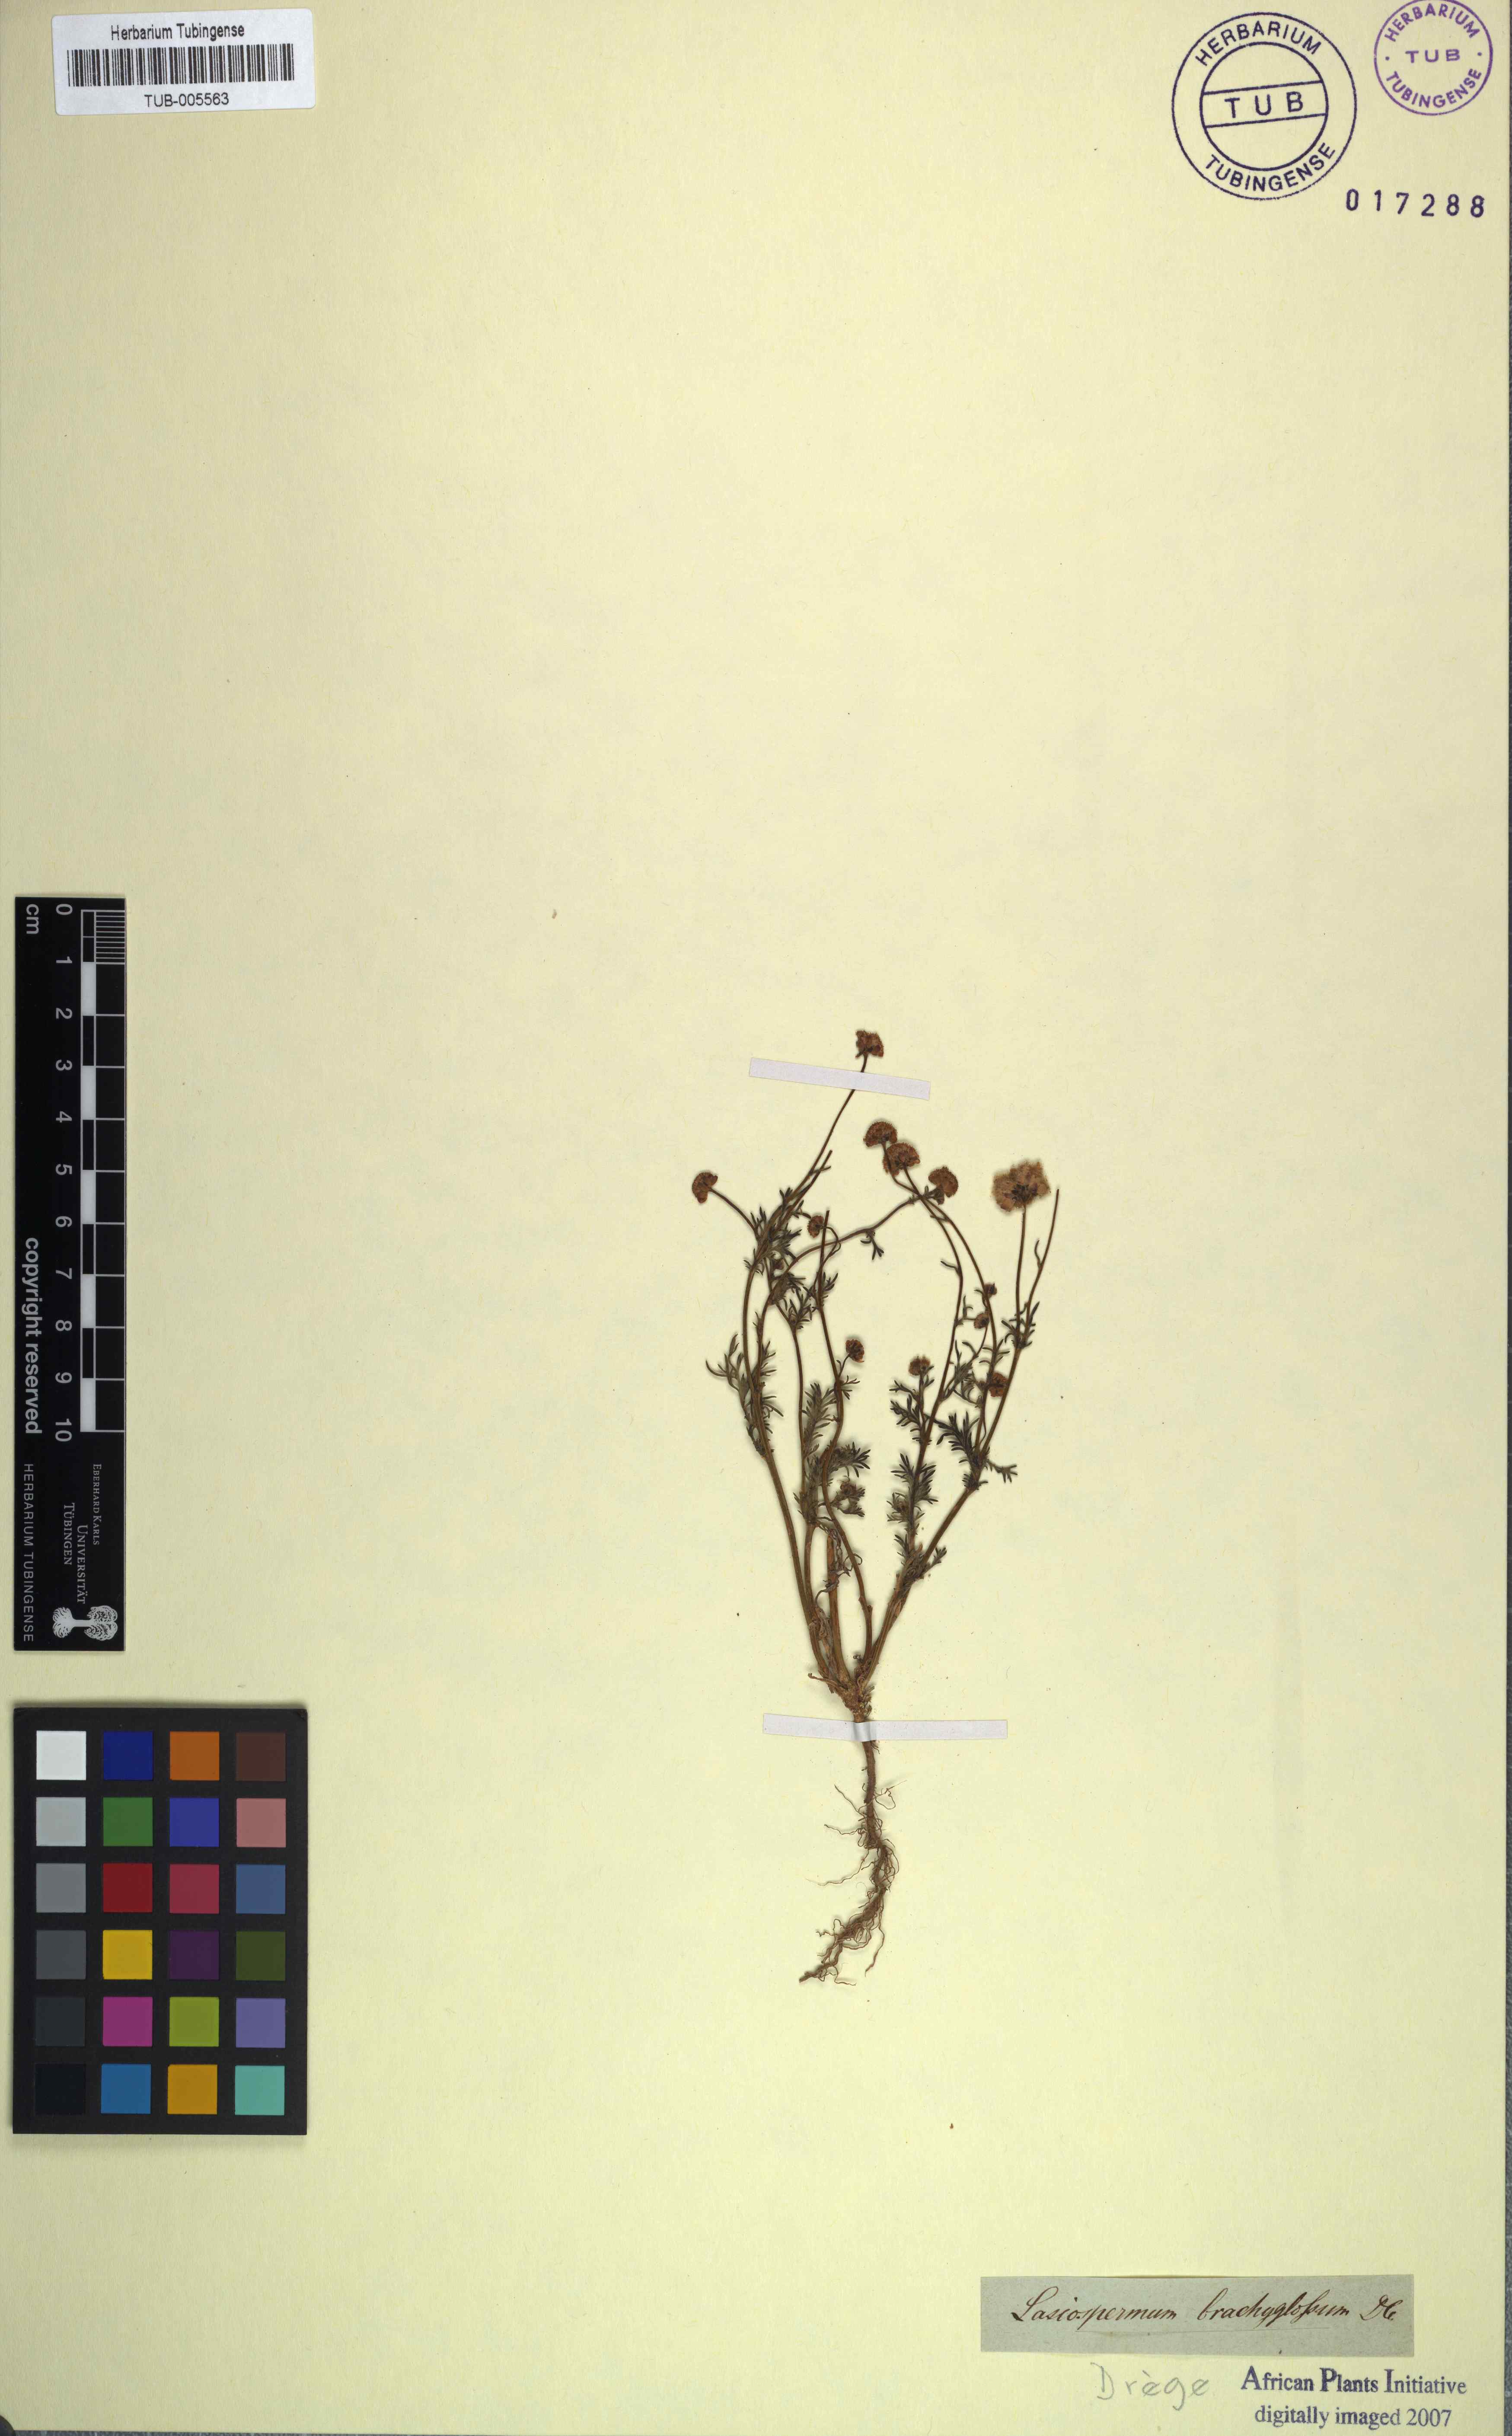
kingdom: Plantae
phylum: Tracheophyta
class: Magnoliopsida
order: Asterales
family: Asteraceae
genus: Lasiospermum
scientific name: Lasiospermum brachyglossum
